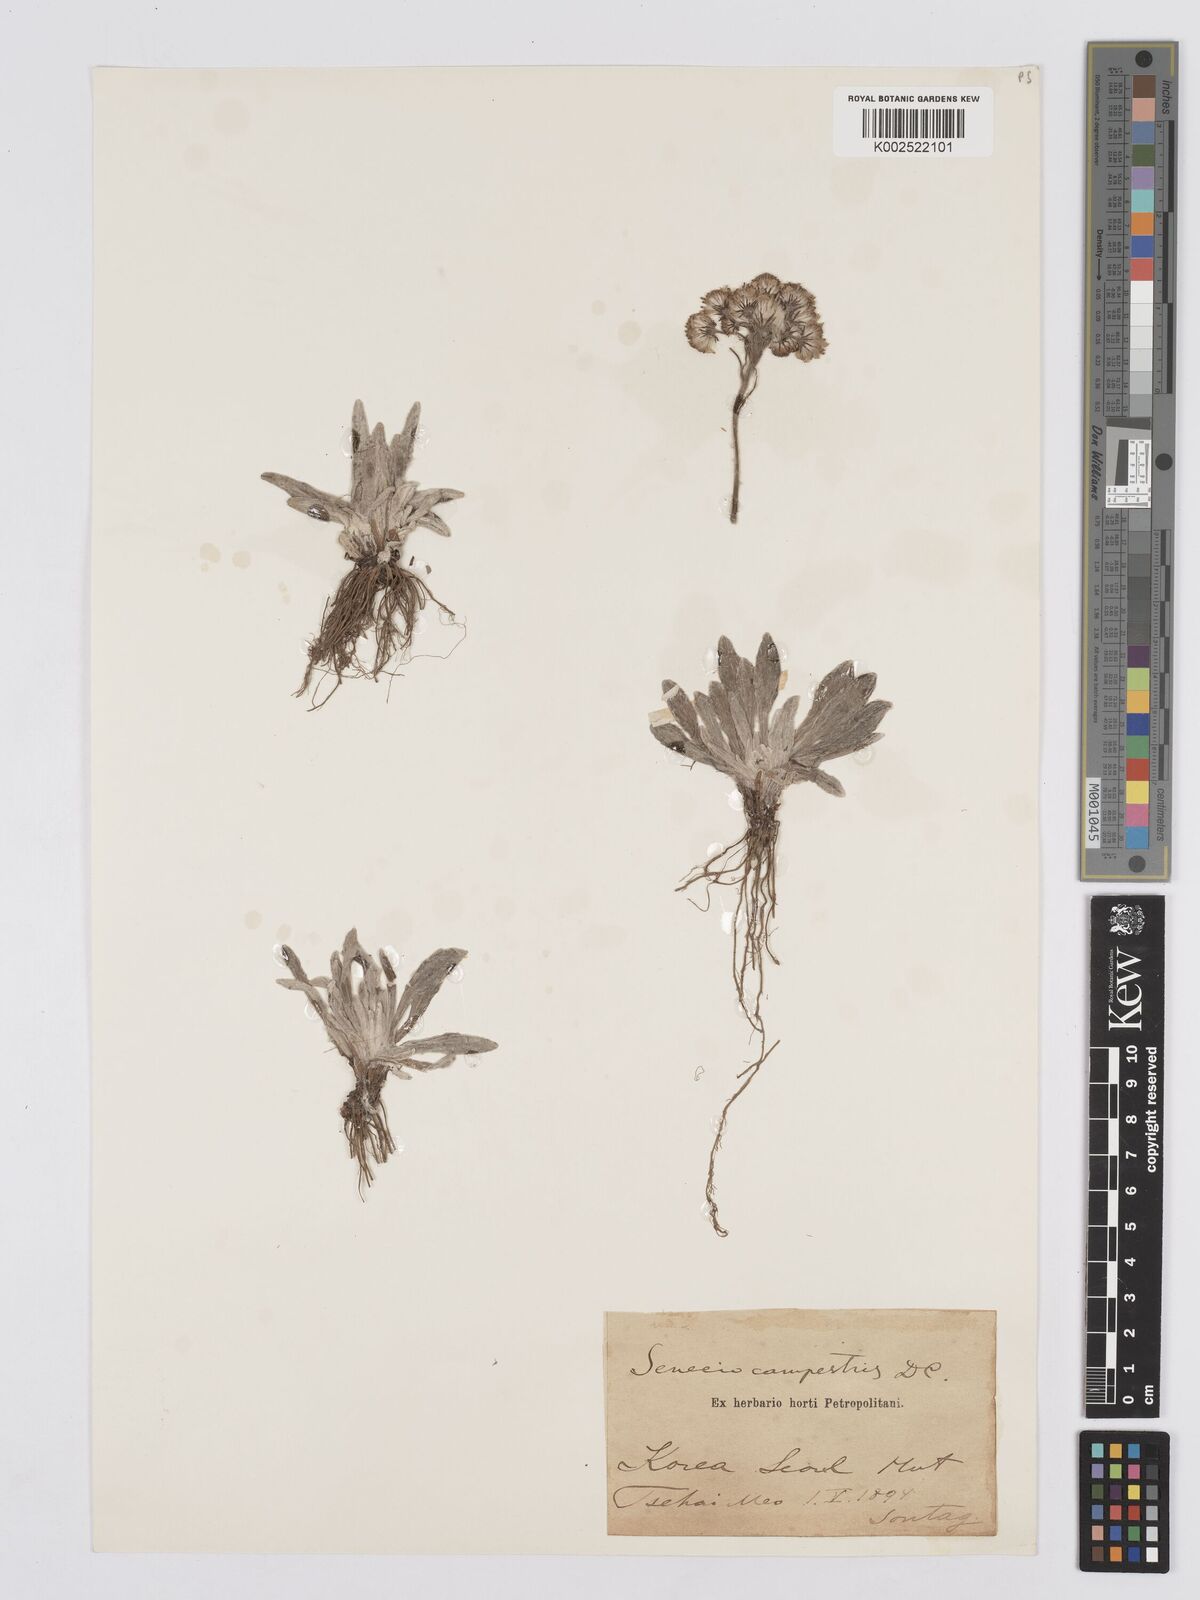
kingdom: Plantae
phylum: Tracheophyta
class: Magnoliopsida
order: Asterales
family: Asteraceae
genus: Tephroseris
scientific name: Tephroseris kirilowii
